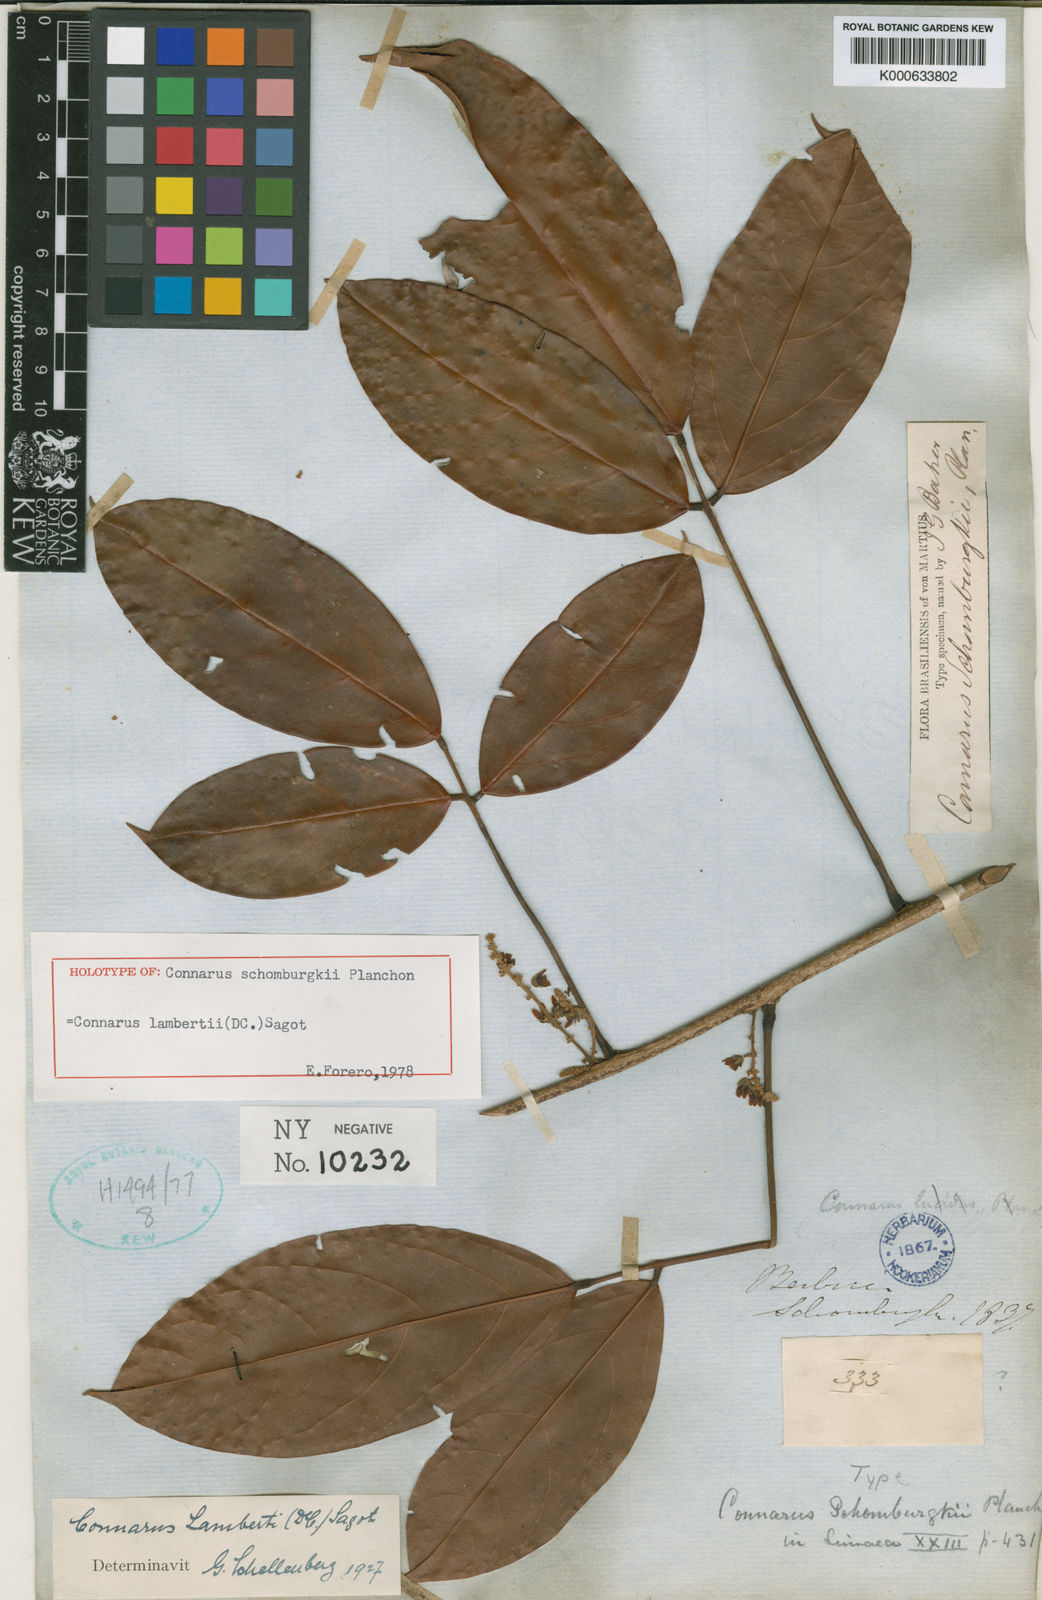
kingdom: Plantae
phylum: Tracheophyta
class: Magnoliopsida
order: Oxalidales
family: Connaraceae
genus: Connarus
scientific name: Connarus
